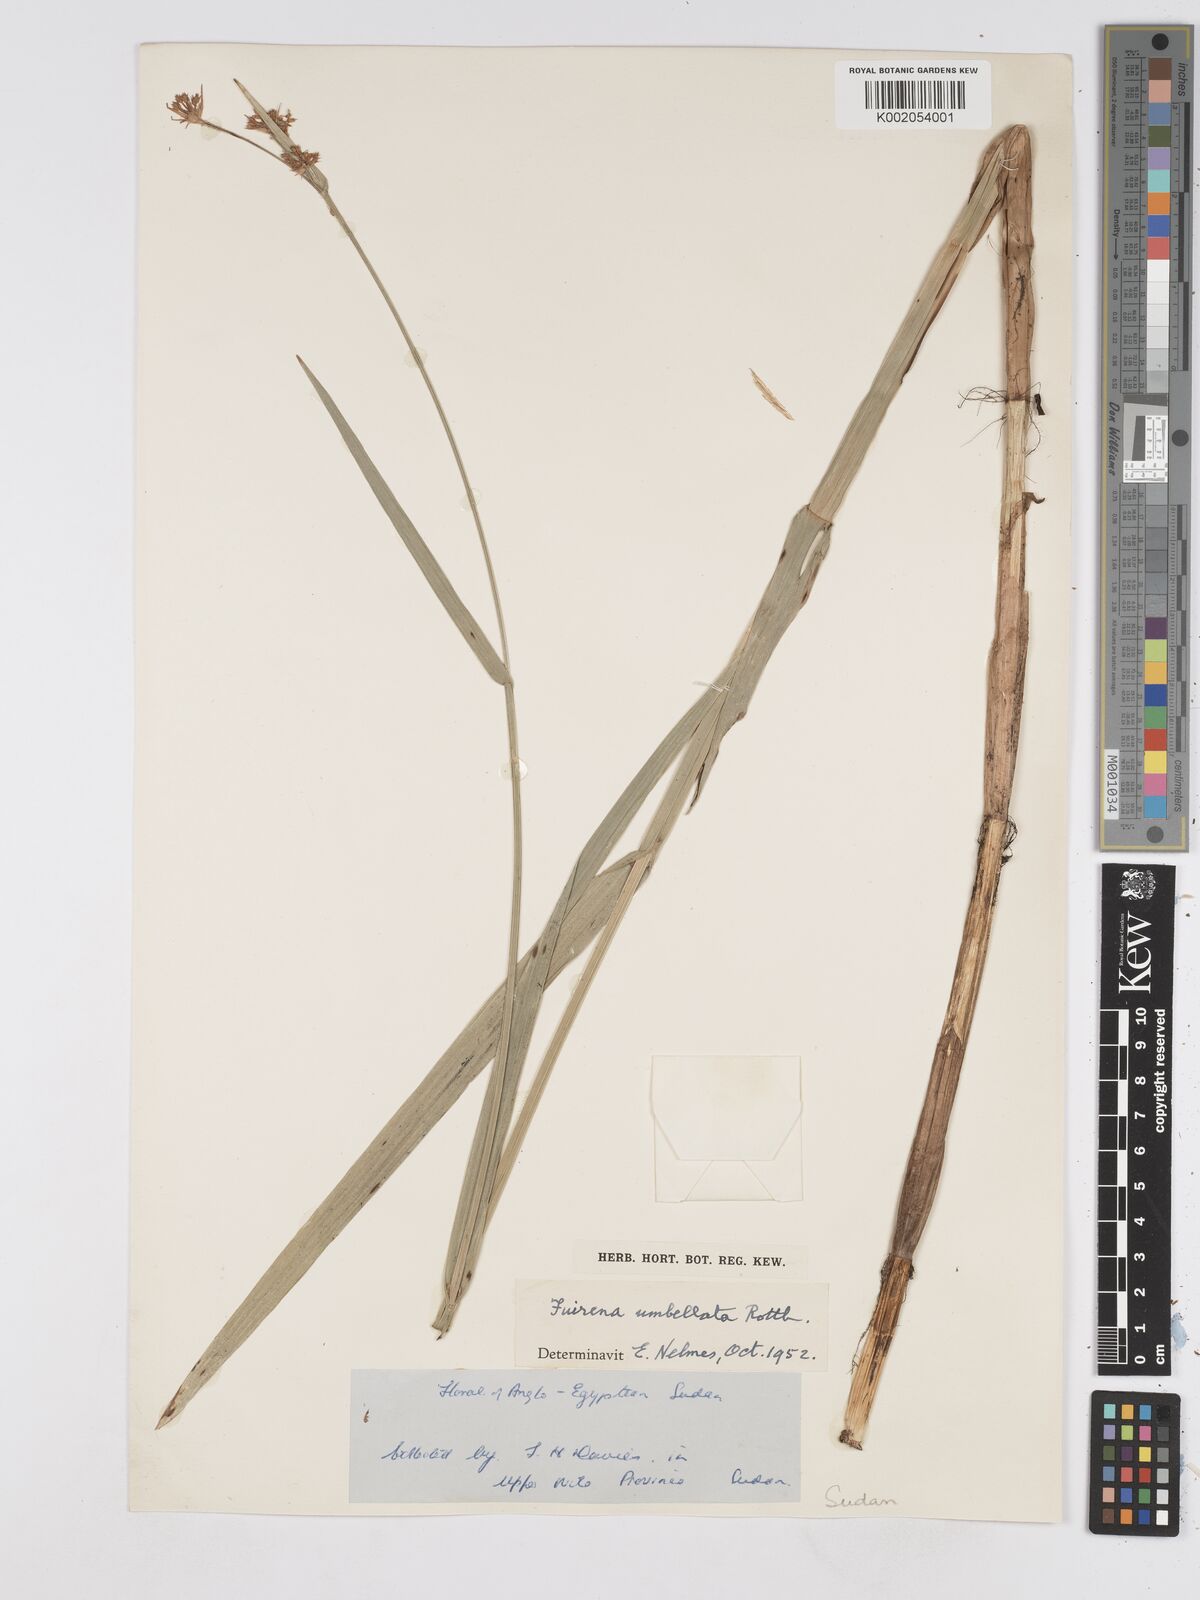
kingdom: Plantae
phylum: Tracheophyta
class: Liliopsida
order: Poales
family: Cyperaceae
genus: Fuirena
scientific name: Fuirena umbellata
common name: Yefen
